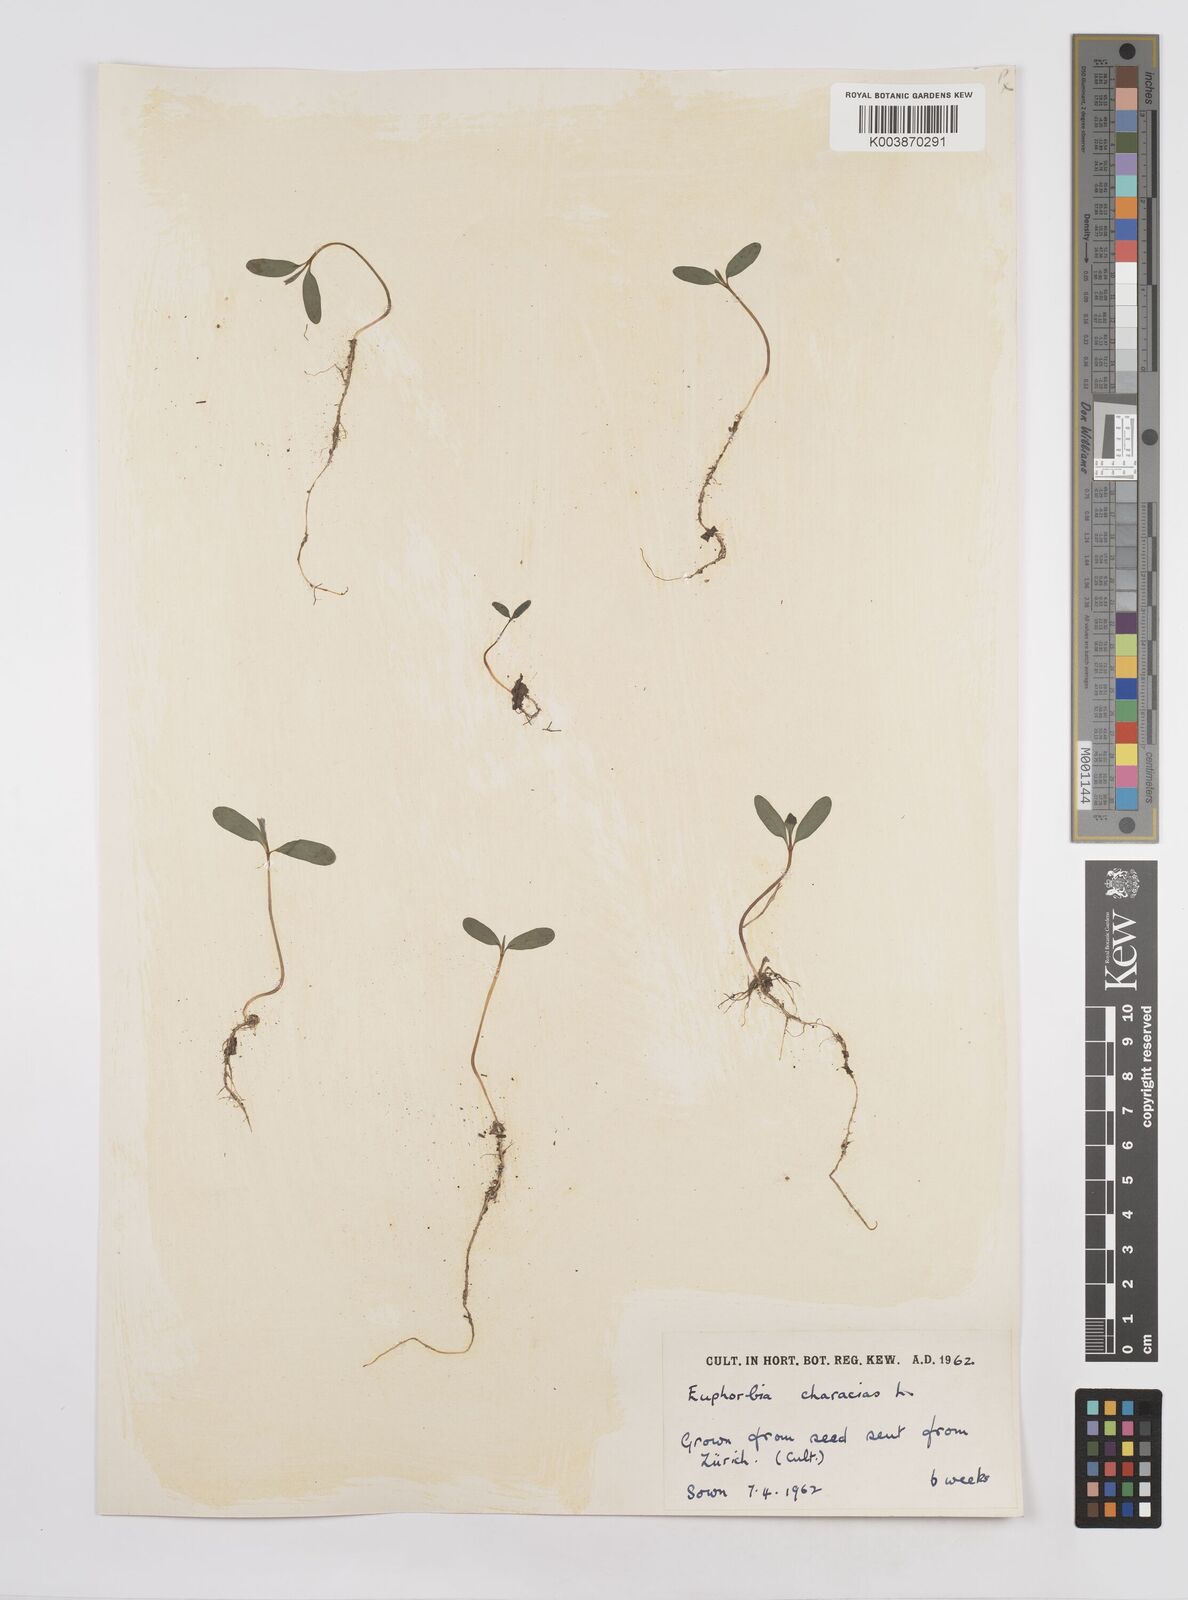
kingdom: Plantae
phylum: Tracheophyta
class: Magnoliopsida
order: Malpighiales
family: Euphorbiaceae
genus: Euphorbia
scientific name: Euphorbia characias
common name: Mediterranean spurge
